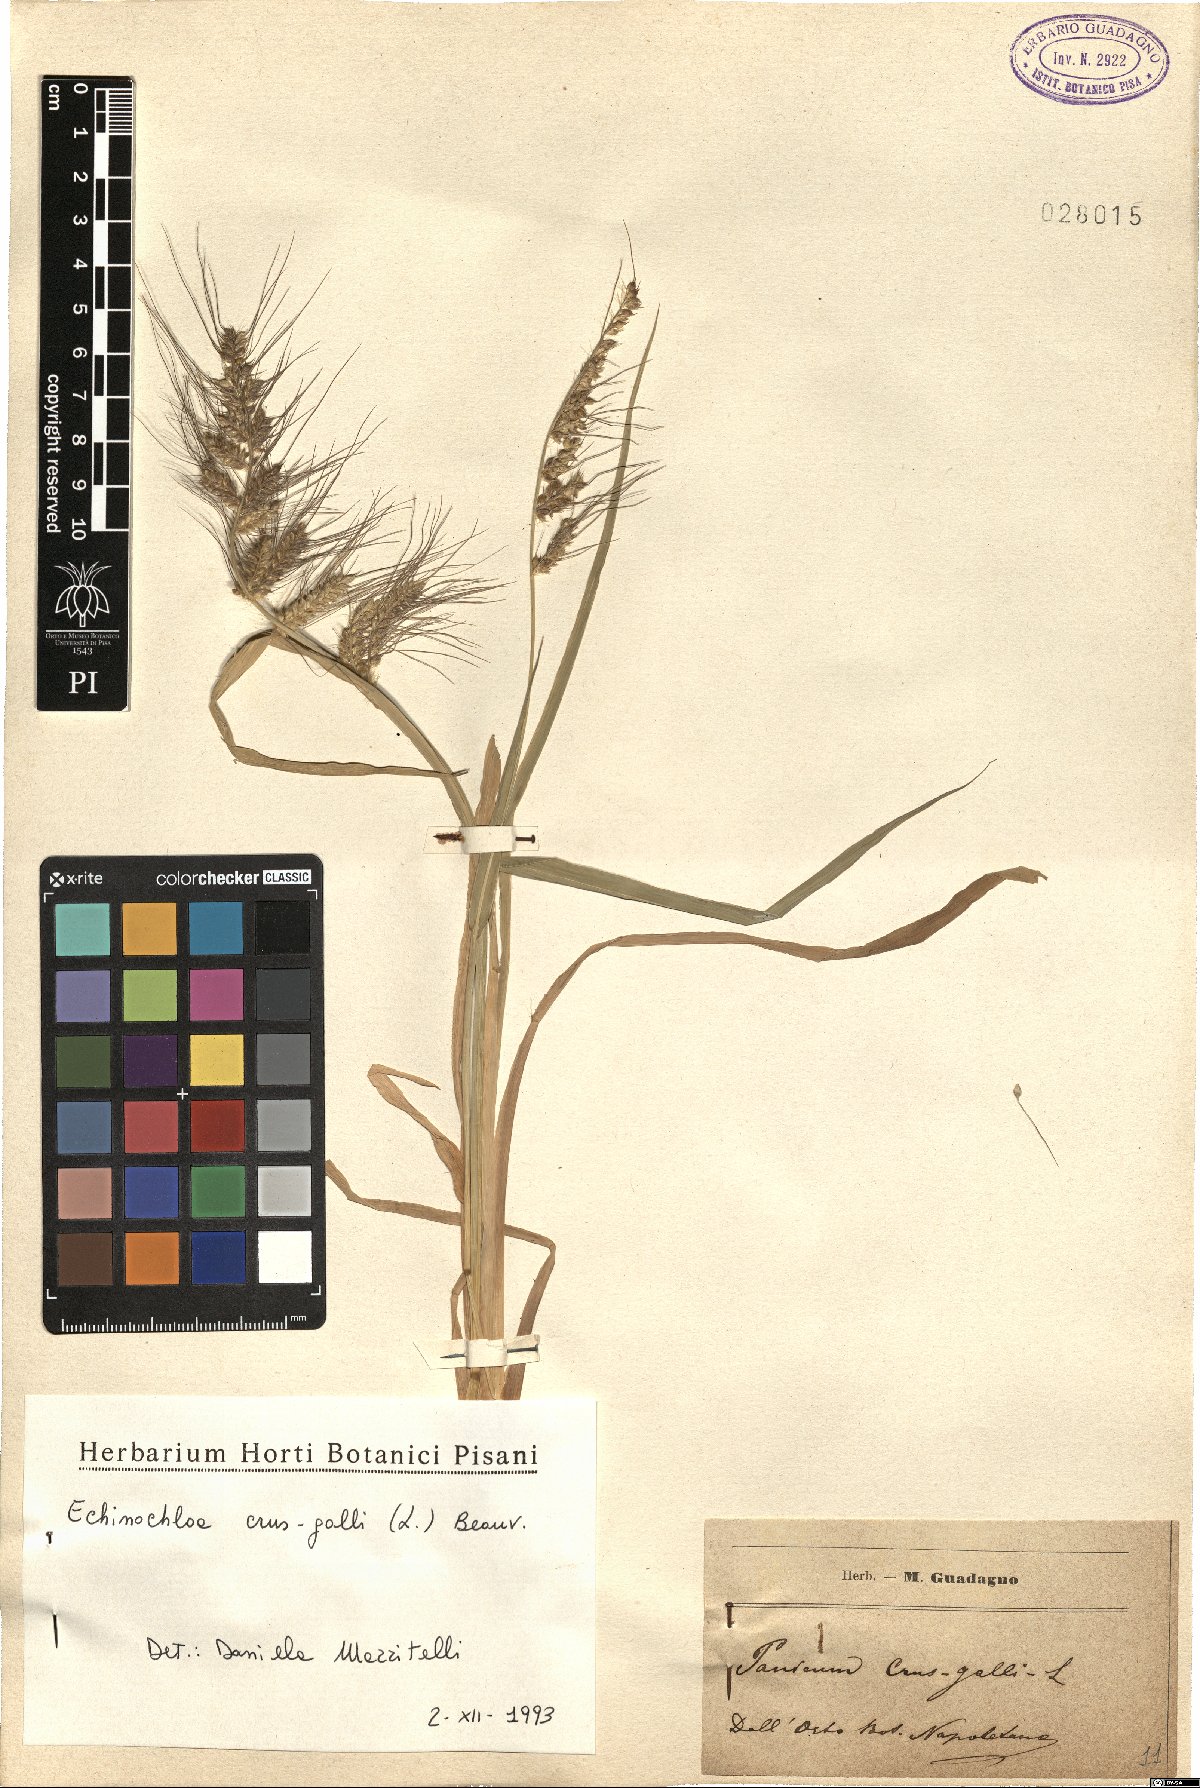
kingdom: Plantae
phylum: Tracheophyta
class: Liliopsida
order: Poales
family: Poaceae
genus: Echinochloa
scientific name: Echinochloa crus-galli
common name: Cockspur
